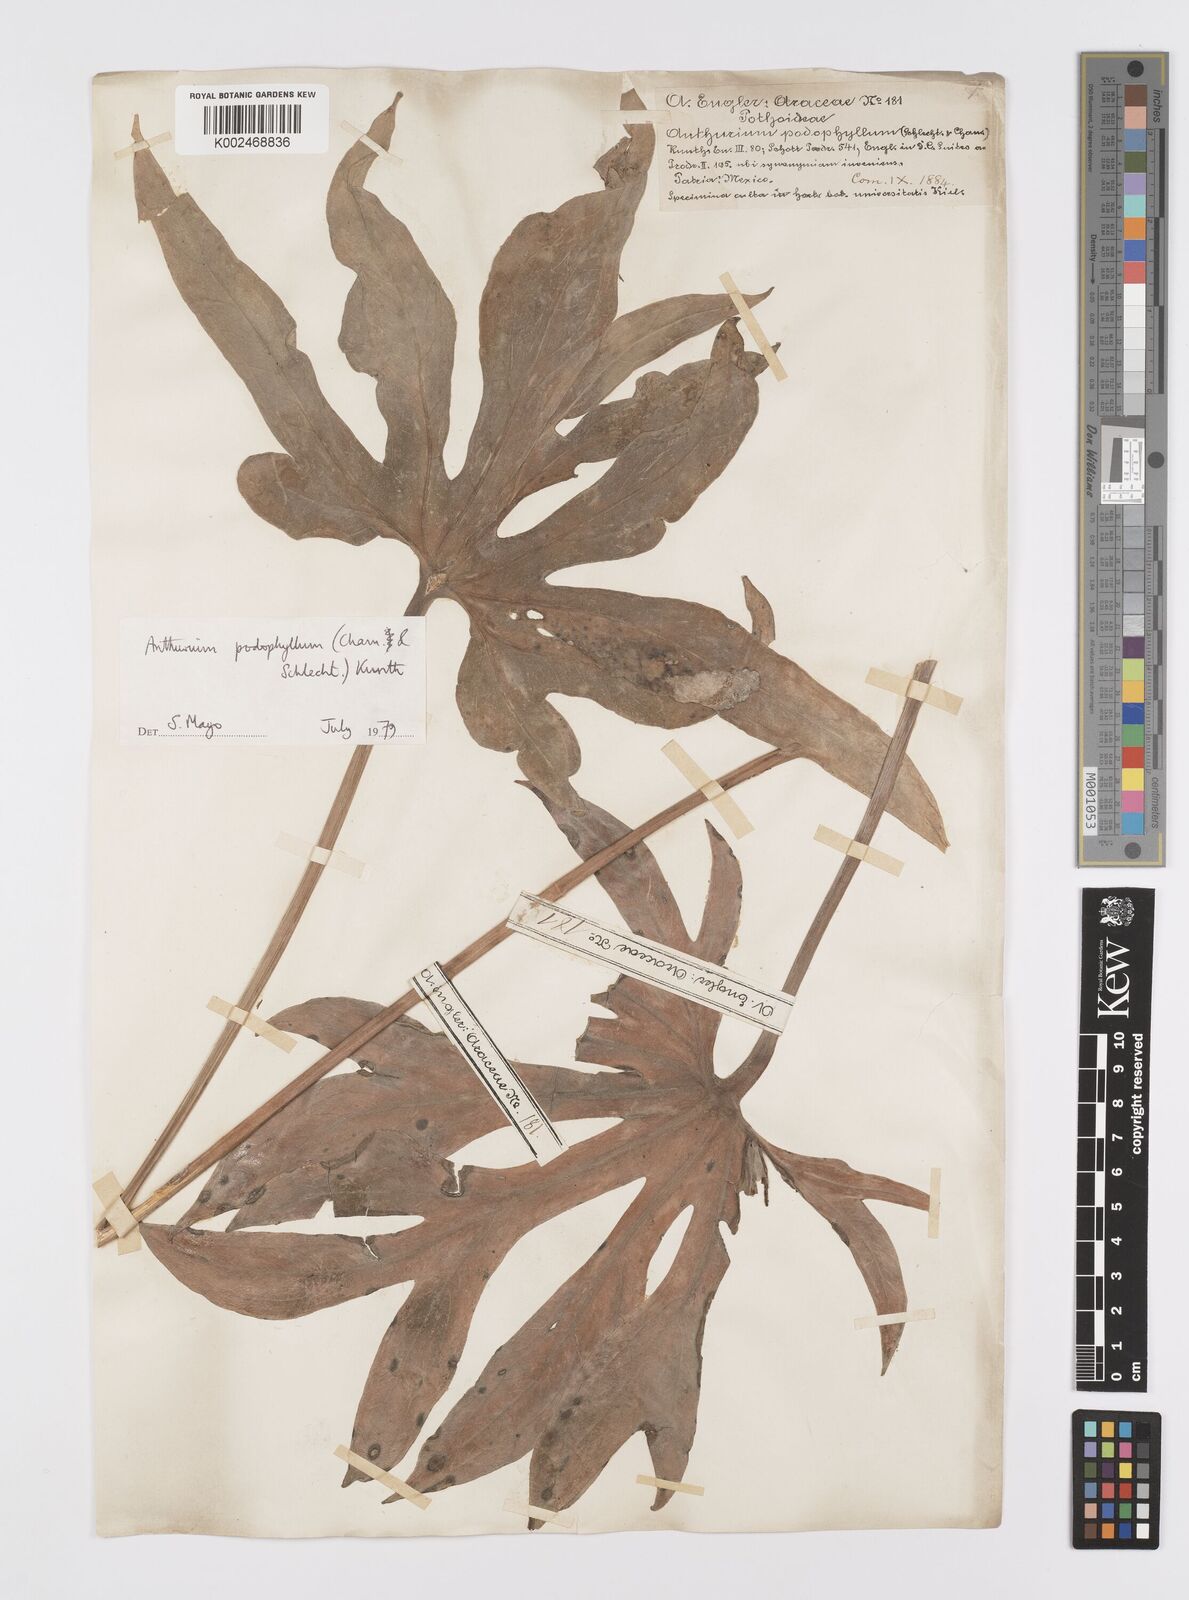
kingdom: Plantae
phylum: Tracheophyta
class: Liliopsida
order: Alismatales
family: Araceae
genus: Anthurium
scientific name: Anthurium podophyllum
